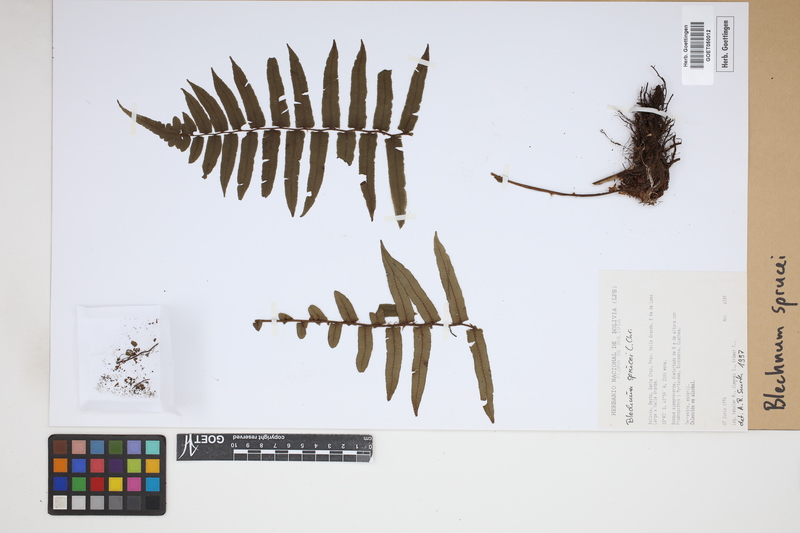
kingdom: Plantae
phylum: Tracheophyta
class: Polypodiopsida
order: Polypodiales
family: Blechnaceae
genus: Cranfillia
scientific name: Cranfillia caudata
